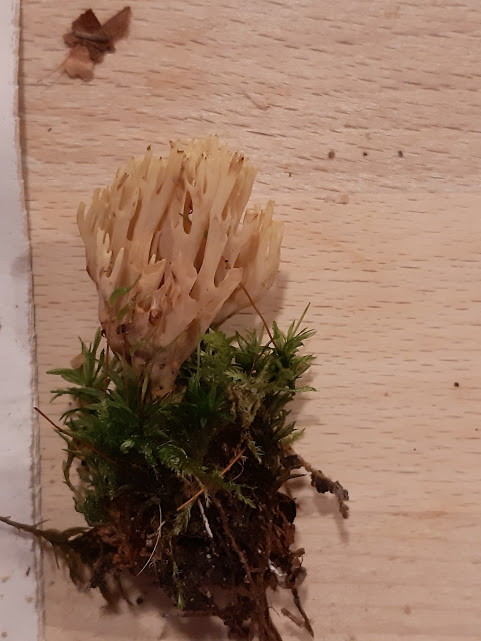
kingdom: Fungi
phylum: Basidiomycota
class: Agaricomycetes
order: Gomphales
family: Gomphaceae
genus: Ramaria
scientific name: Ramaria stricta
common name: rank koralsvamp
